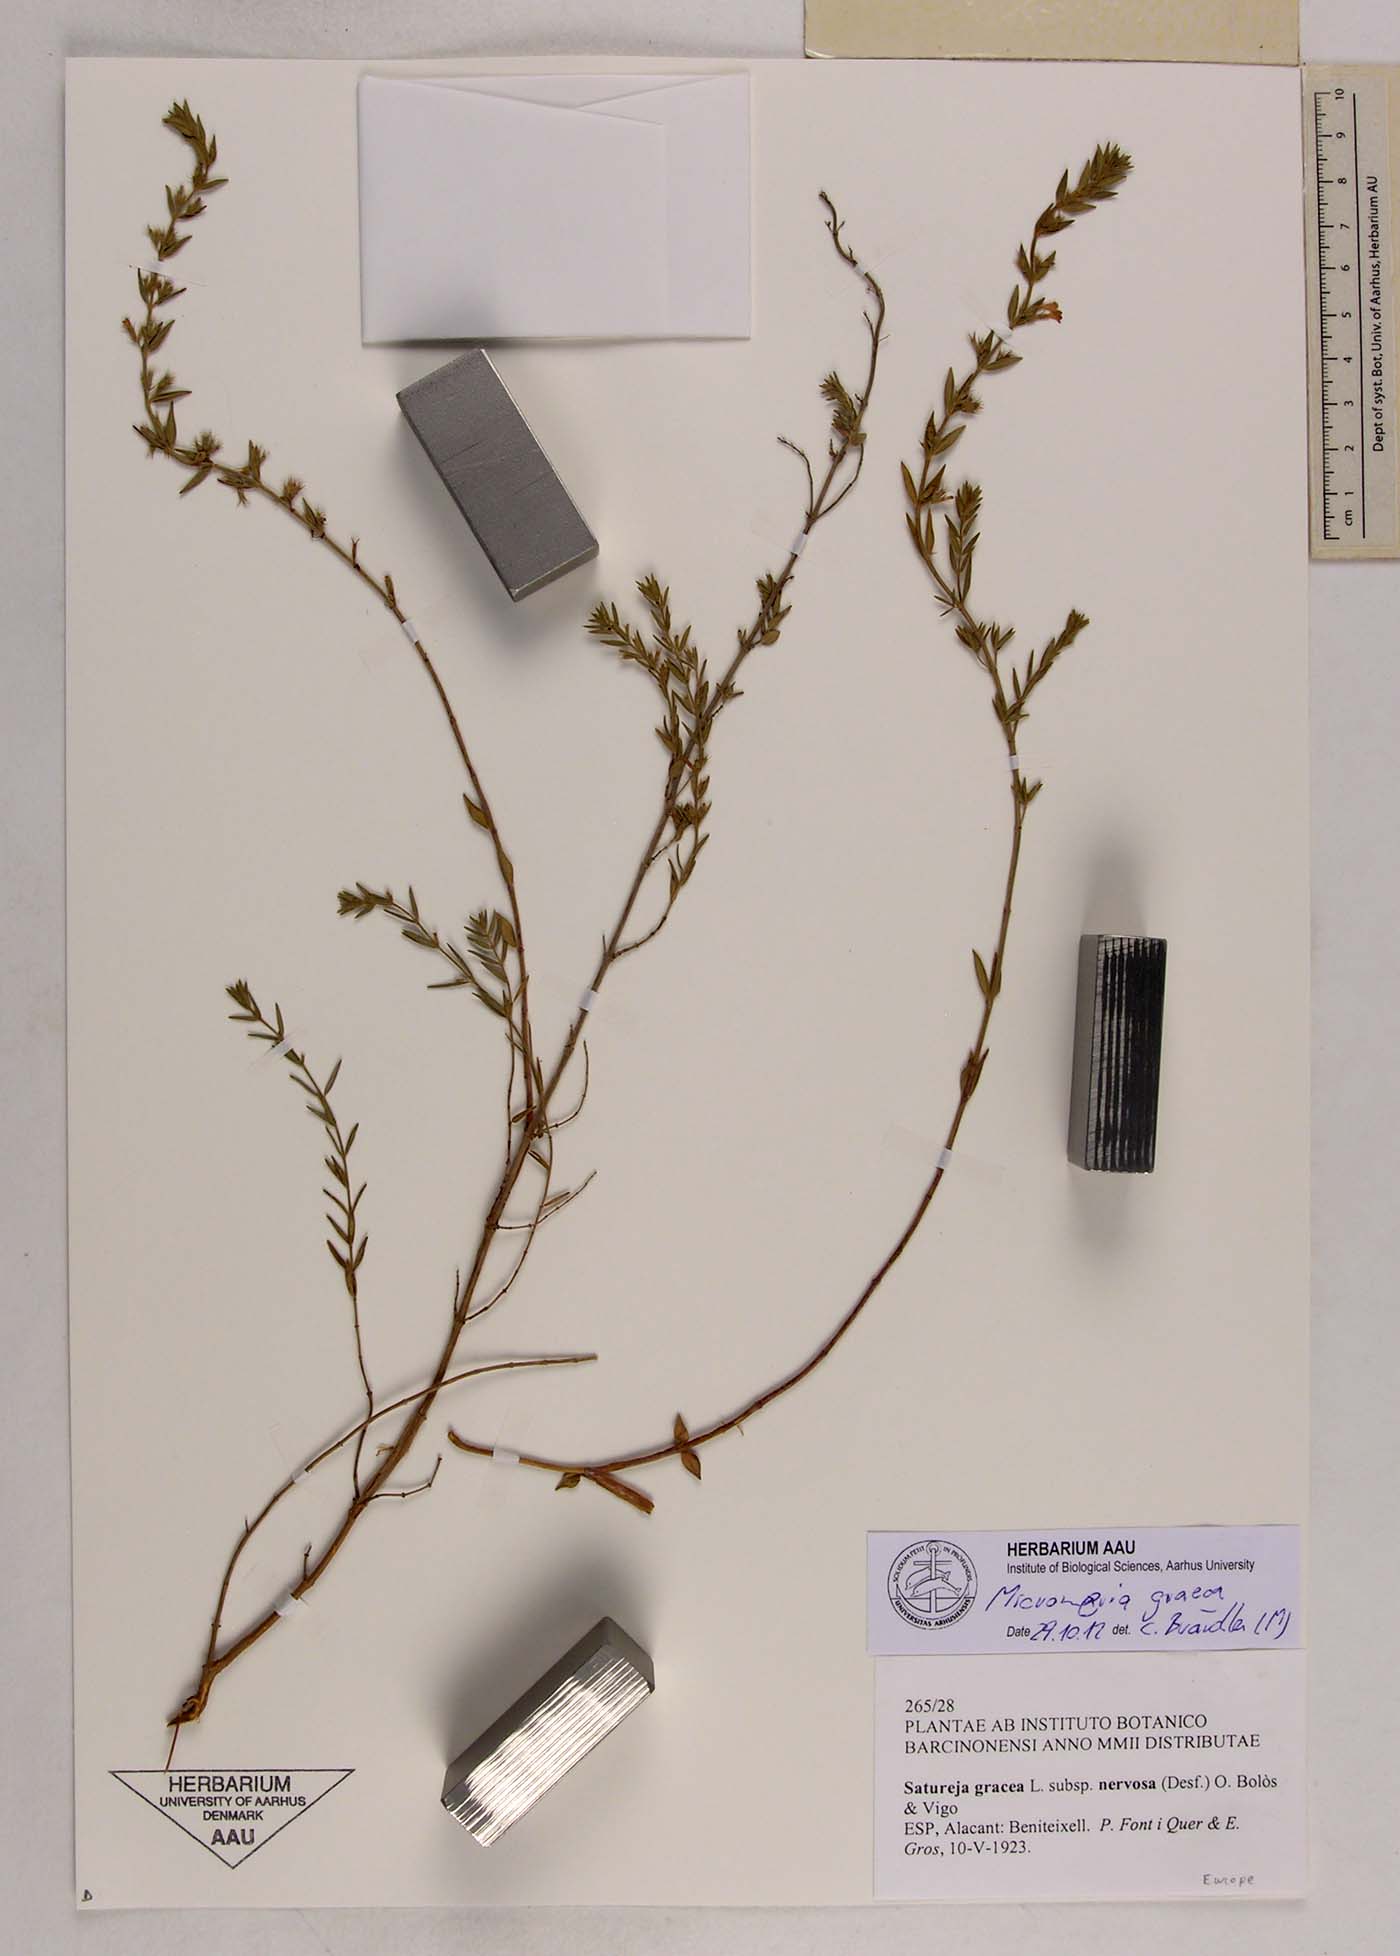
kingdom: Plantae
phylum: Tracheophyta
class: Magnoliopsida
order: Lamiales
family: Lamiaceae
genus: Micromeria
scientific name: Micromeria graeca
